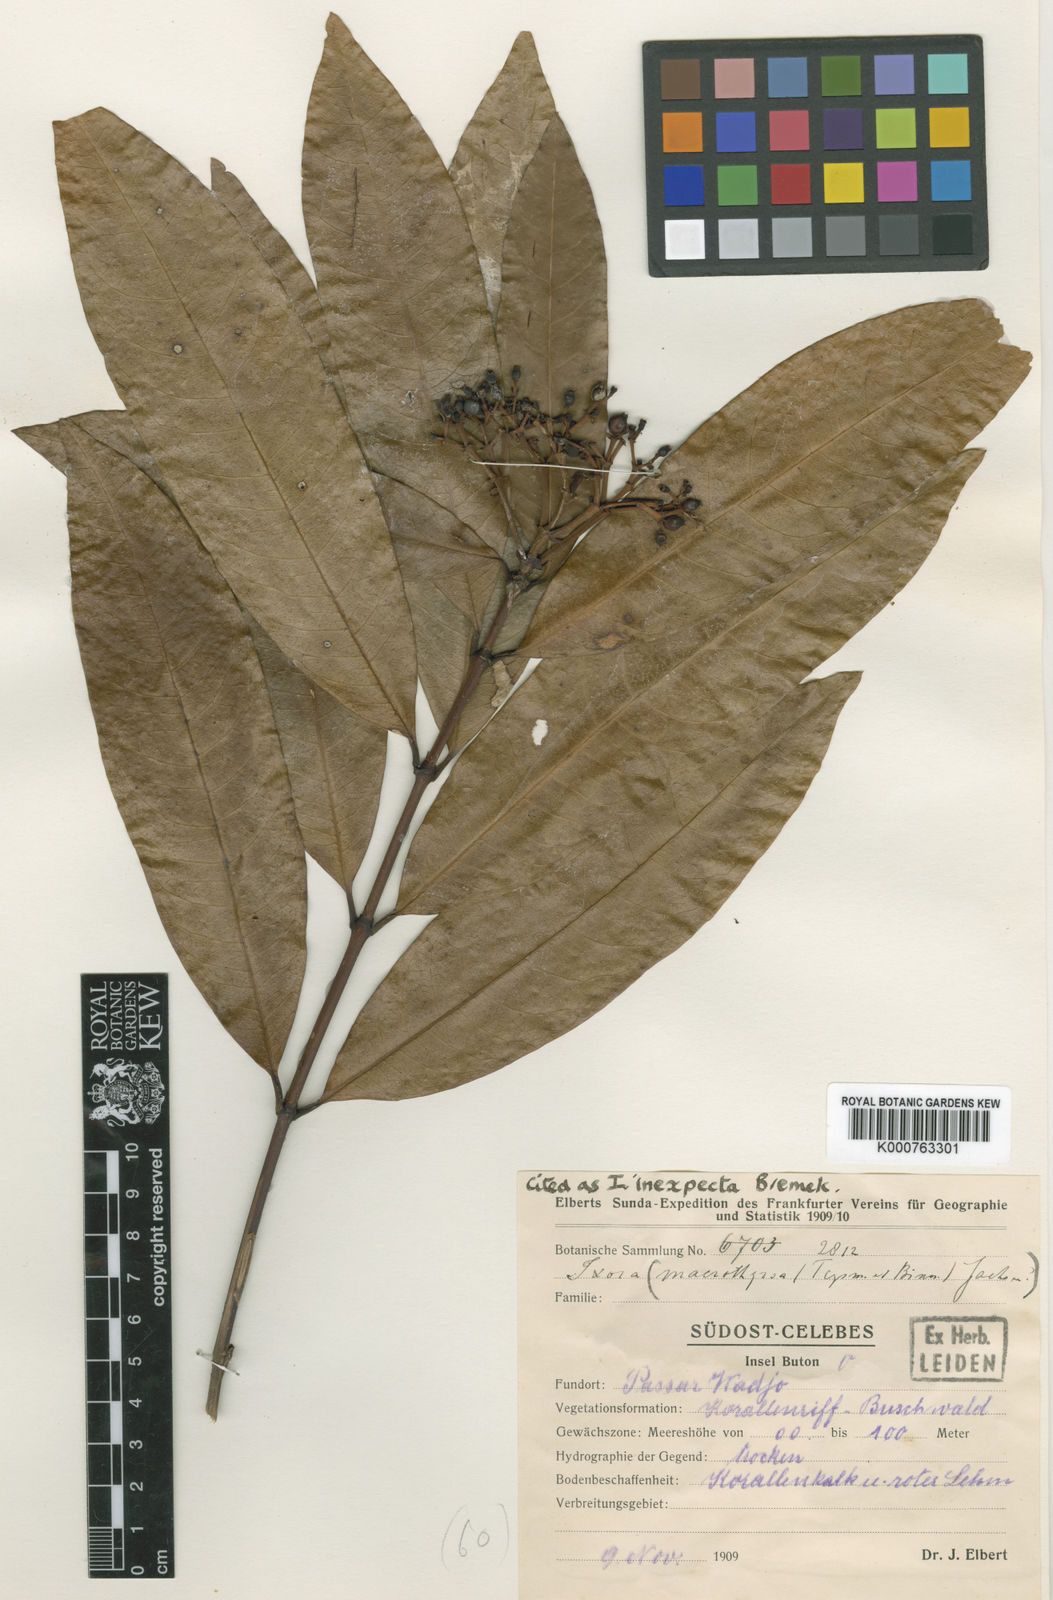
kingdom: Plantae
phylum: Tracheophyta
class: Magnoliopsida
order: Gentianales
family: Rubiaceae
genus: Ixora
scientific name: Ixora inexpecta
